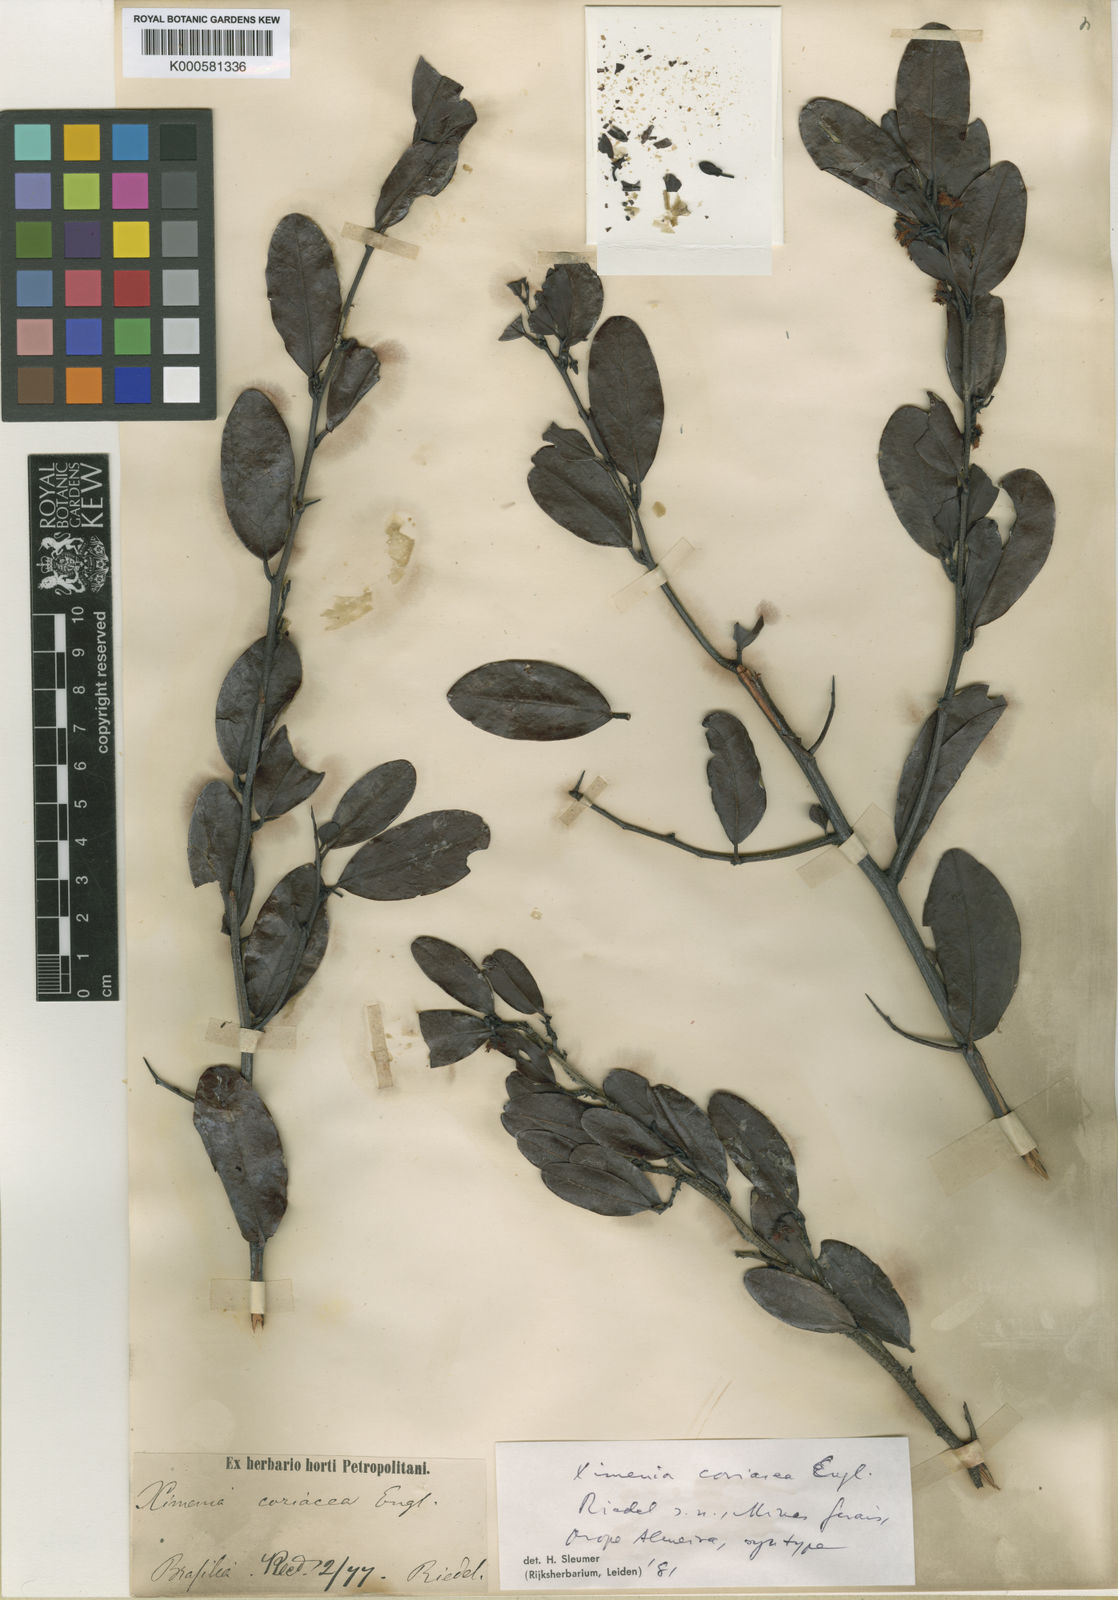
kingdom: Plantae
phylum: Tracheophyta
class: Magnoliopsida
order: Santalales
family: Ximeniaceae
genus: Ximenia
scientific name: Ximenia coriacea
